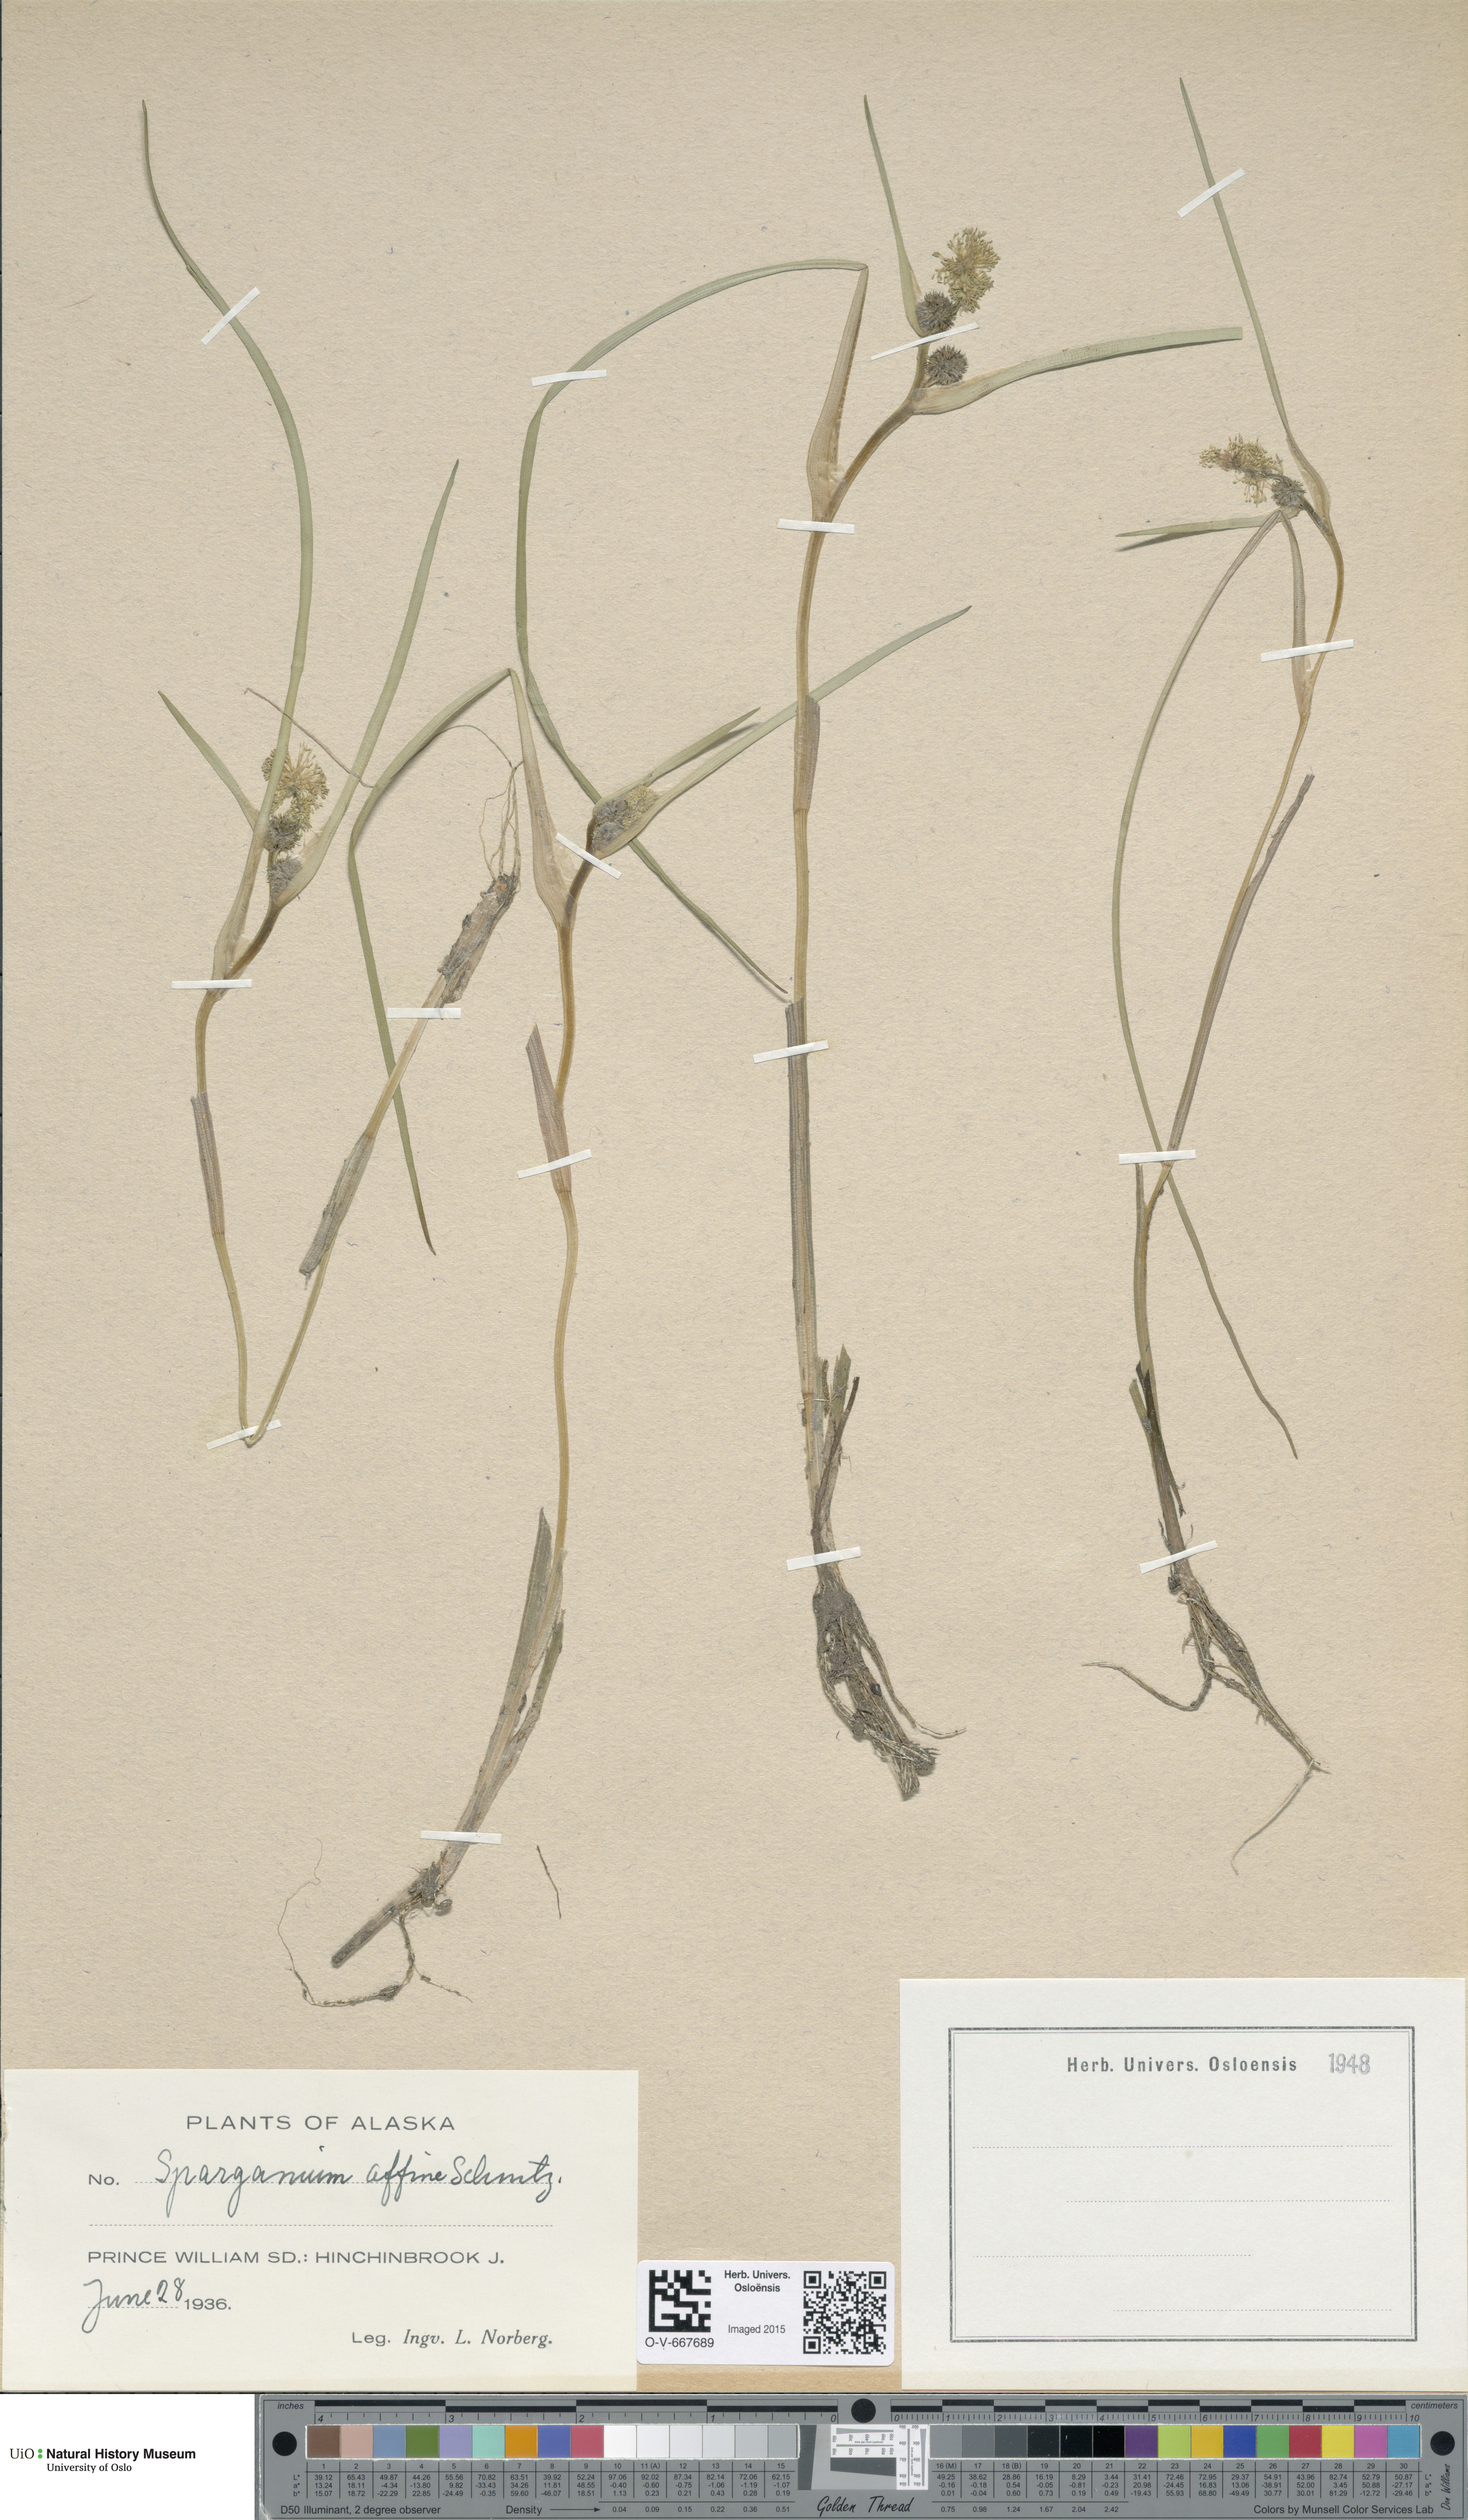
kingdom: Plantae
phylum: Tracheophyta
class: Liliopsida
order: Poales
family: Typhaceae
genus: Sparganium
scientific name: Sparganium angustifolium
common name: Floating bur-reed
